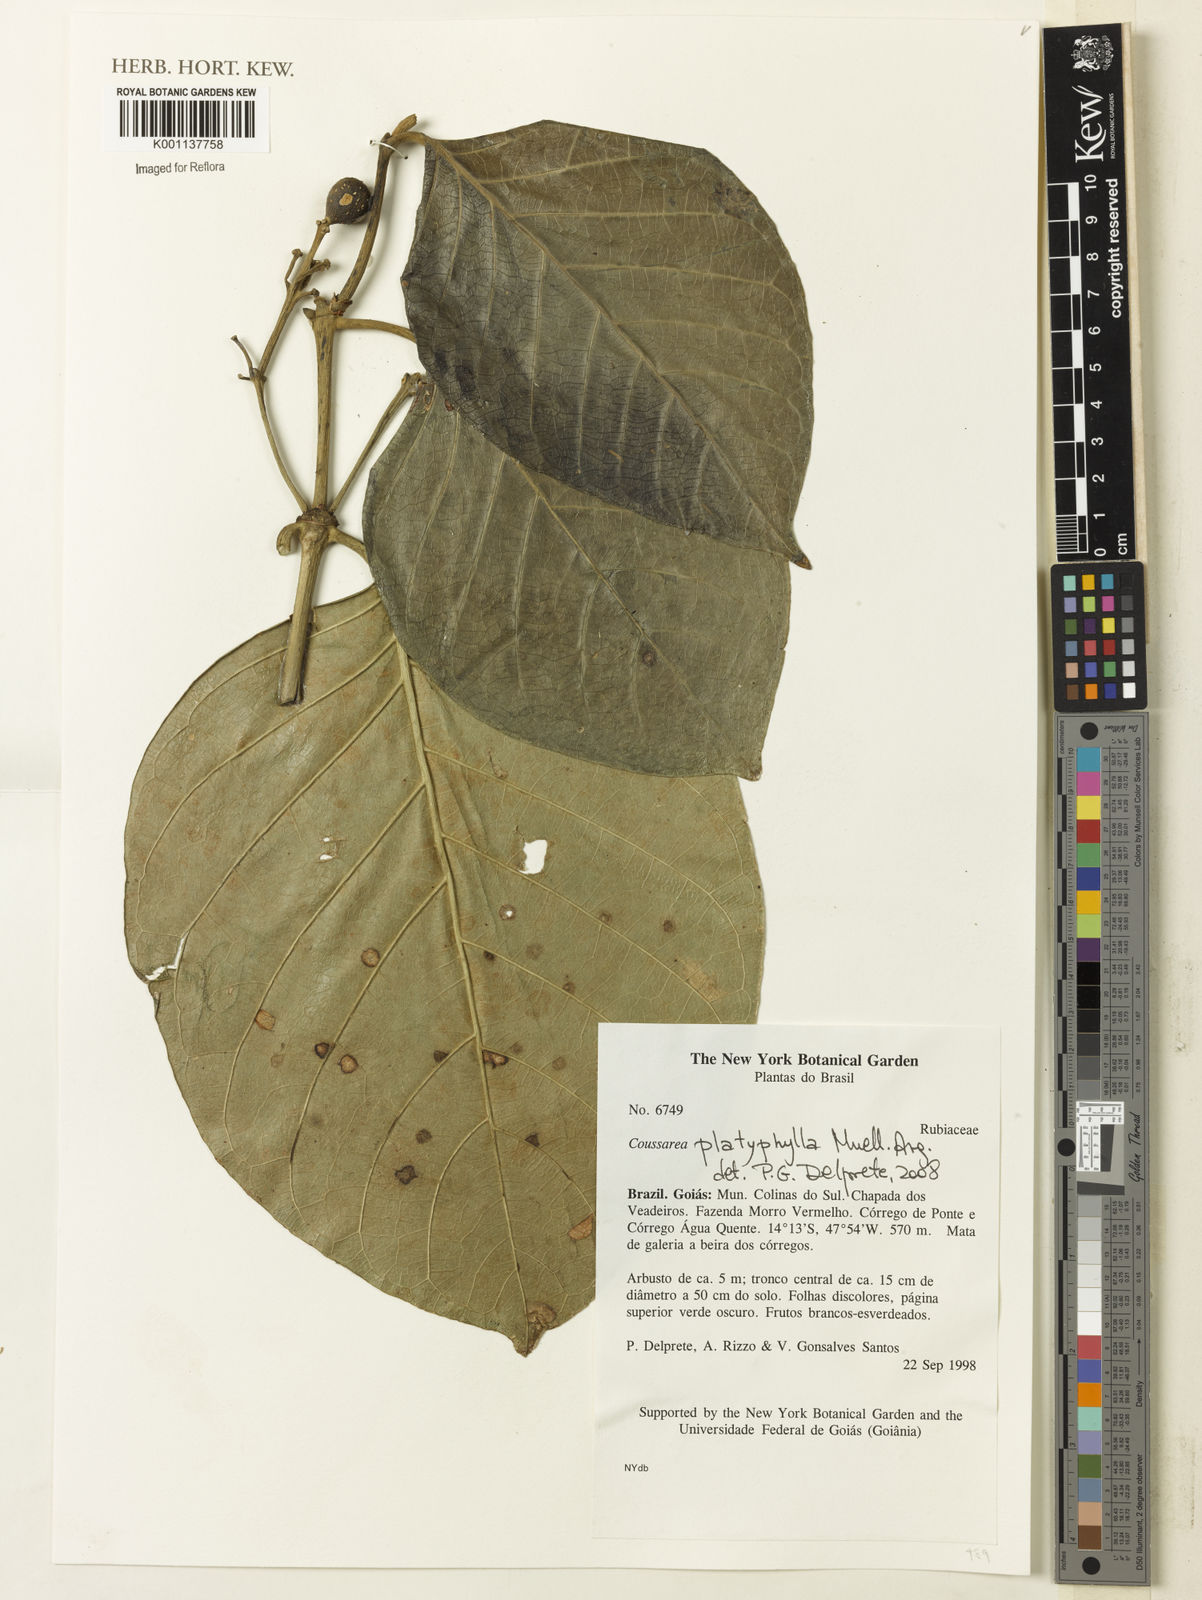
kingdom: Plantae
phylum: Tracheophyta
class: Magnoliopsida
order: Gentianales
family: Rubiaceae
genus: Coussarea
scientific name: Coussarea
